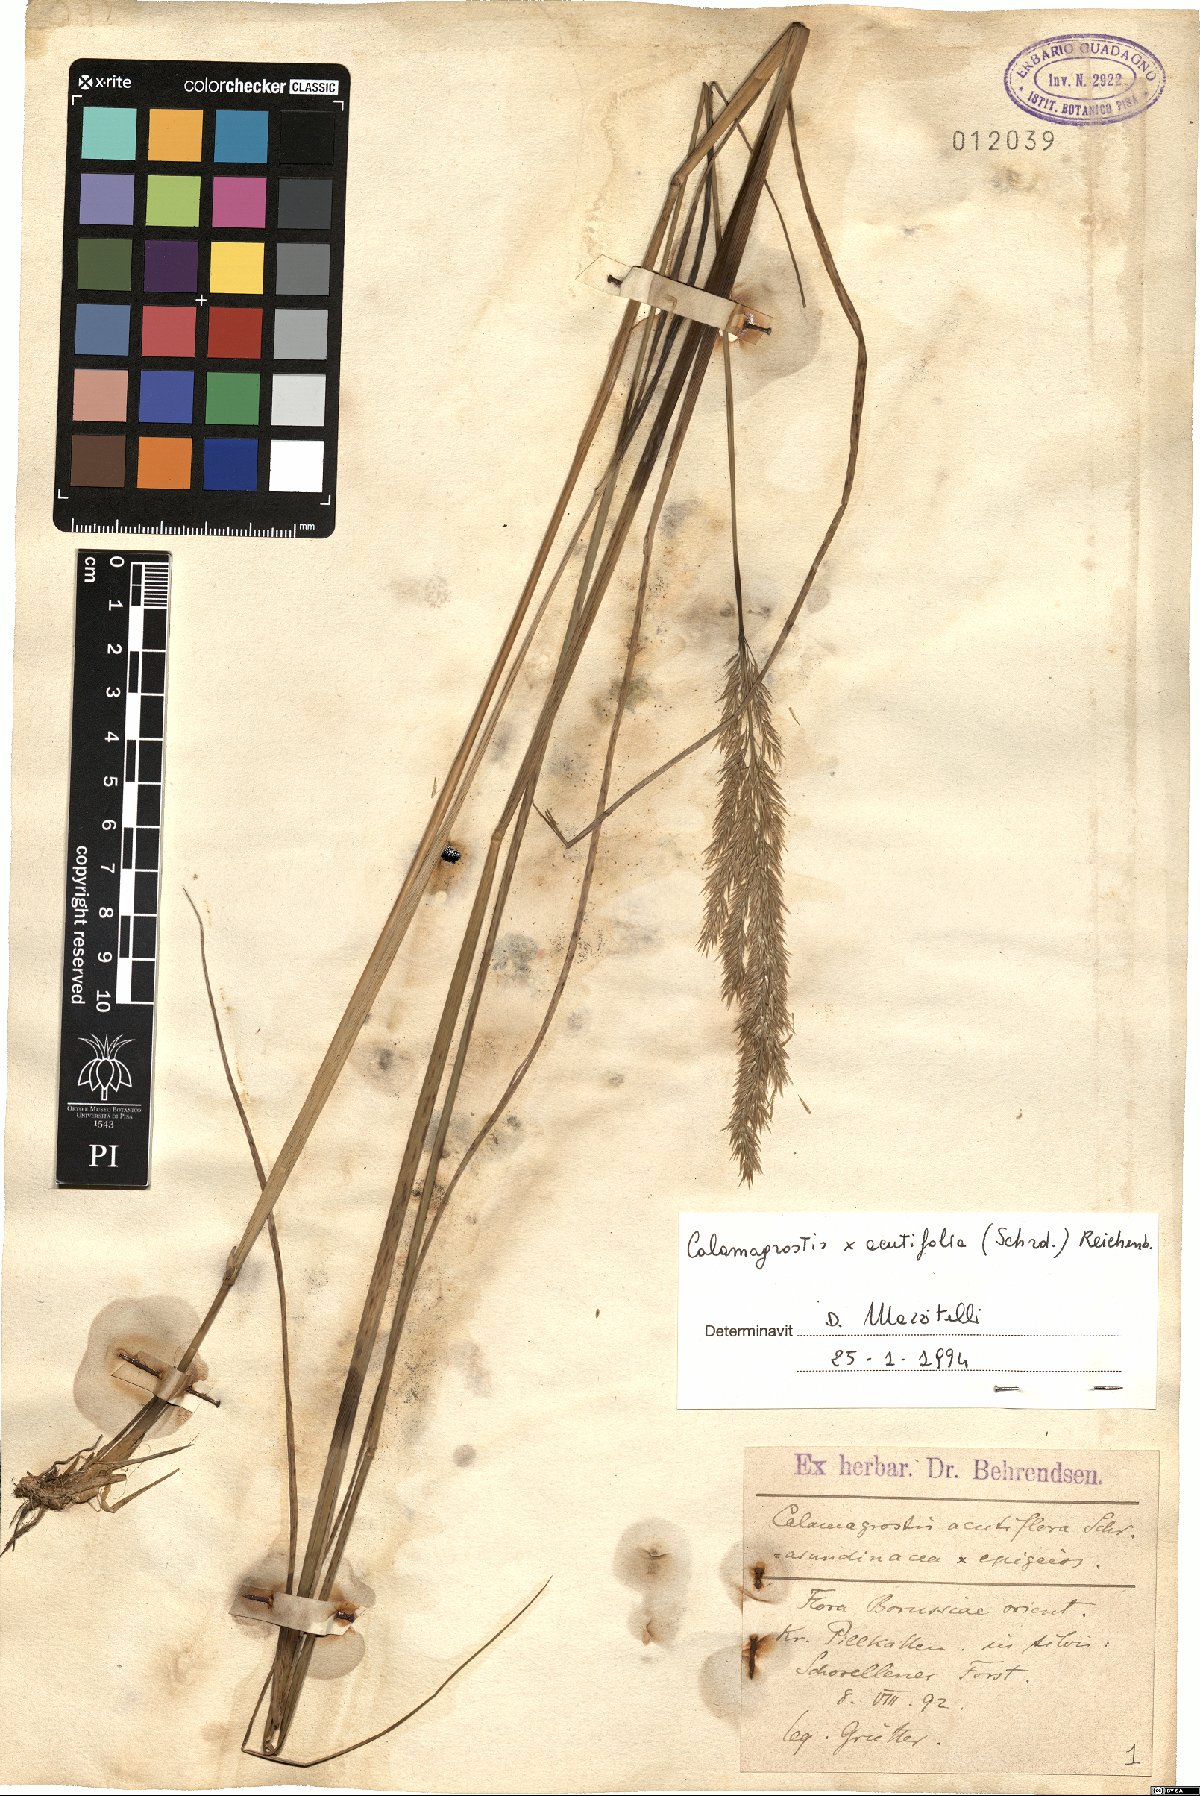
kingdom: Plantae
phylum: Tracheophyta
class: Liliopsida
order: Poales
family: Poaceae
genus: Calamagrostis
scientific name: Calamagrostis acutiflora
